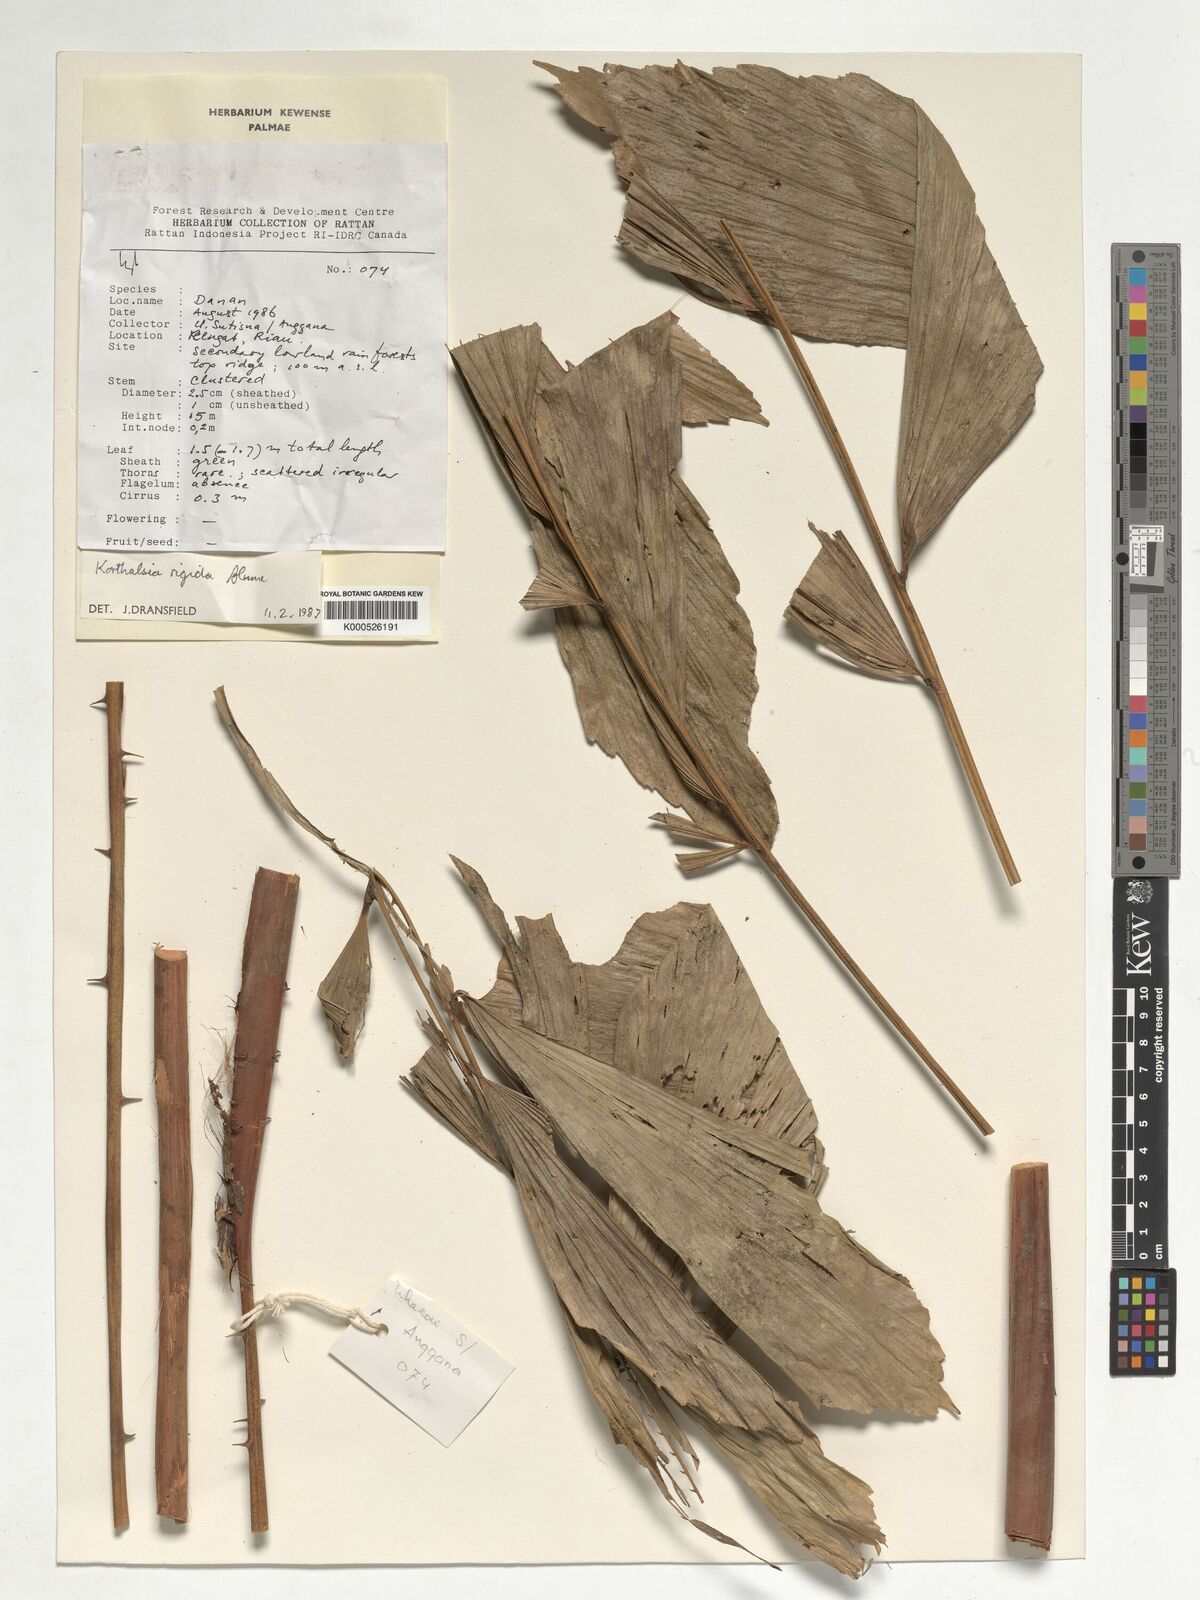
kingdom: Plantae
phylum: Tracheophyta
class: Liliopsida
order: Arecales
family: Arecaceae
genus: Korthalsia
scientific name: Korthalsia rigida
